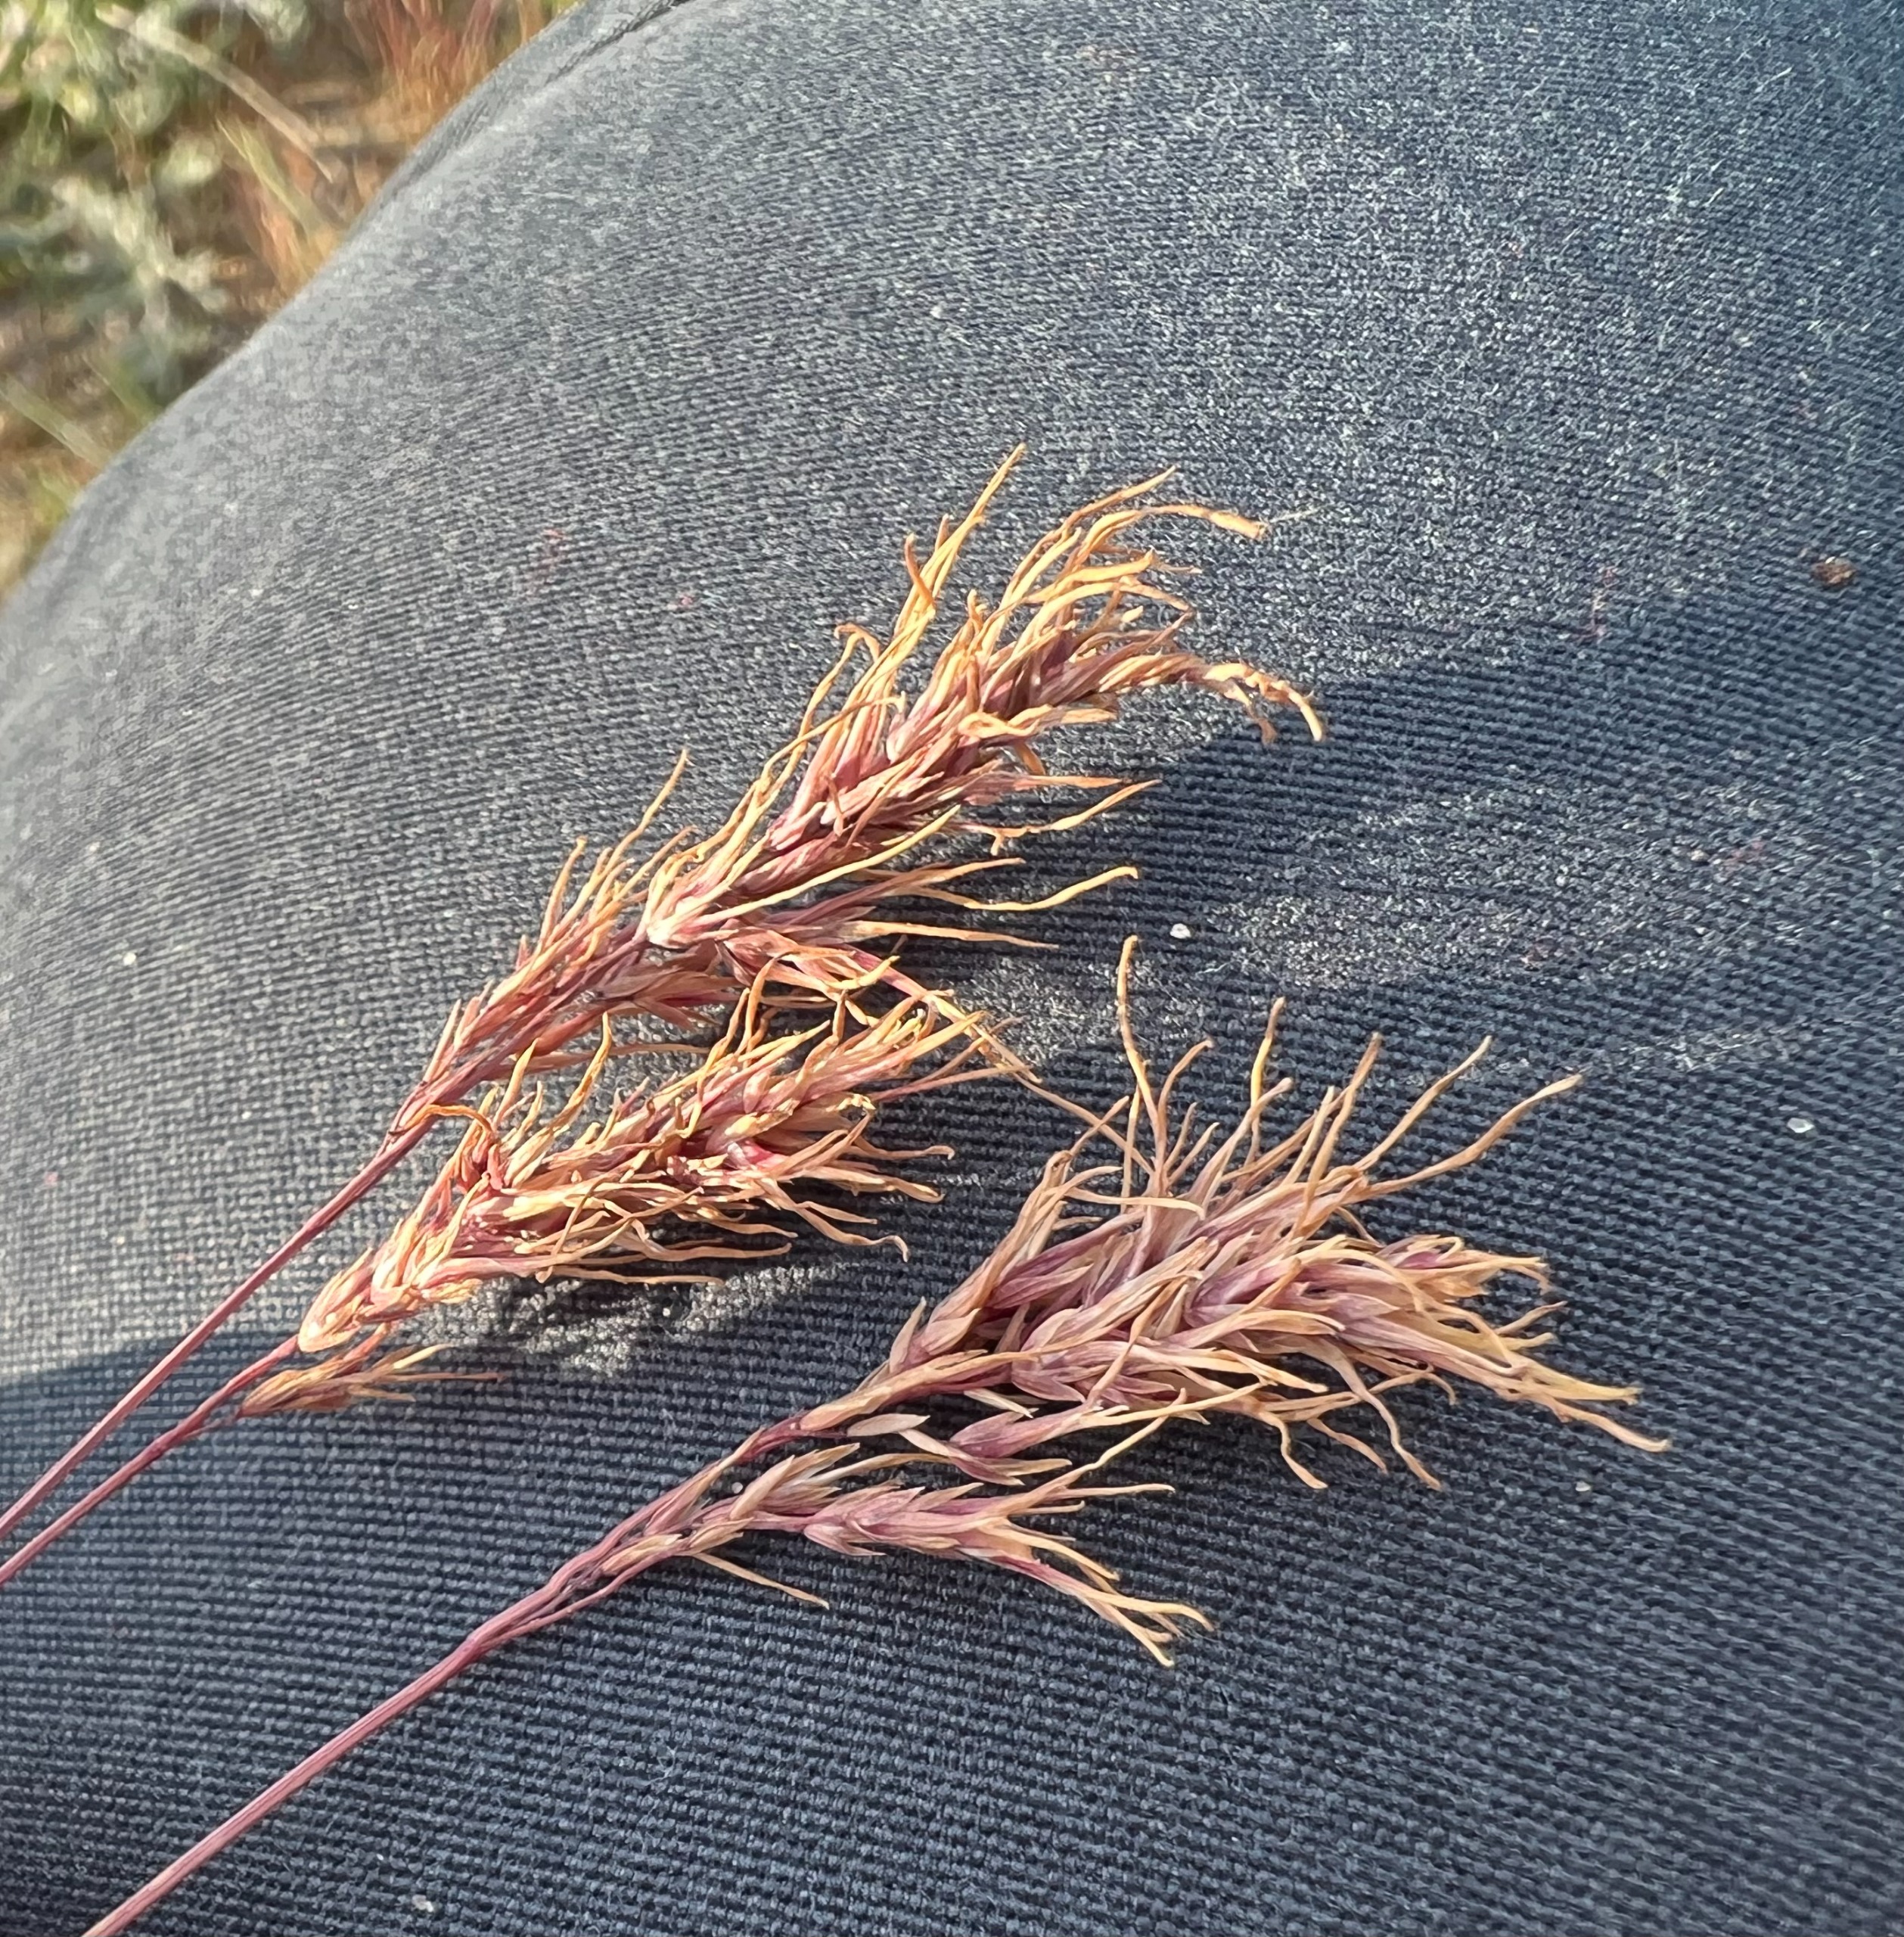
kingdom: Plantae
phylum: Tracheophyta
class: Liliopsida
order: Poales
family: Poaceae
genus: Poa
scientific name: Poa bulbosa
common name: Løg-rapgræs
